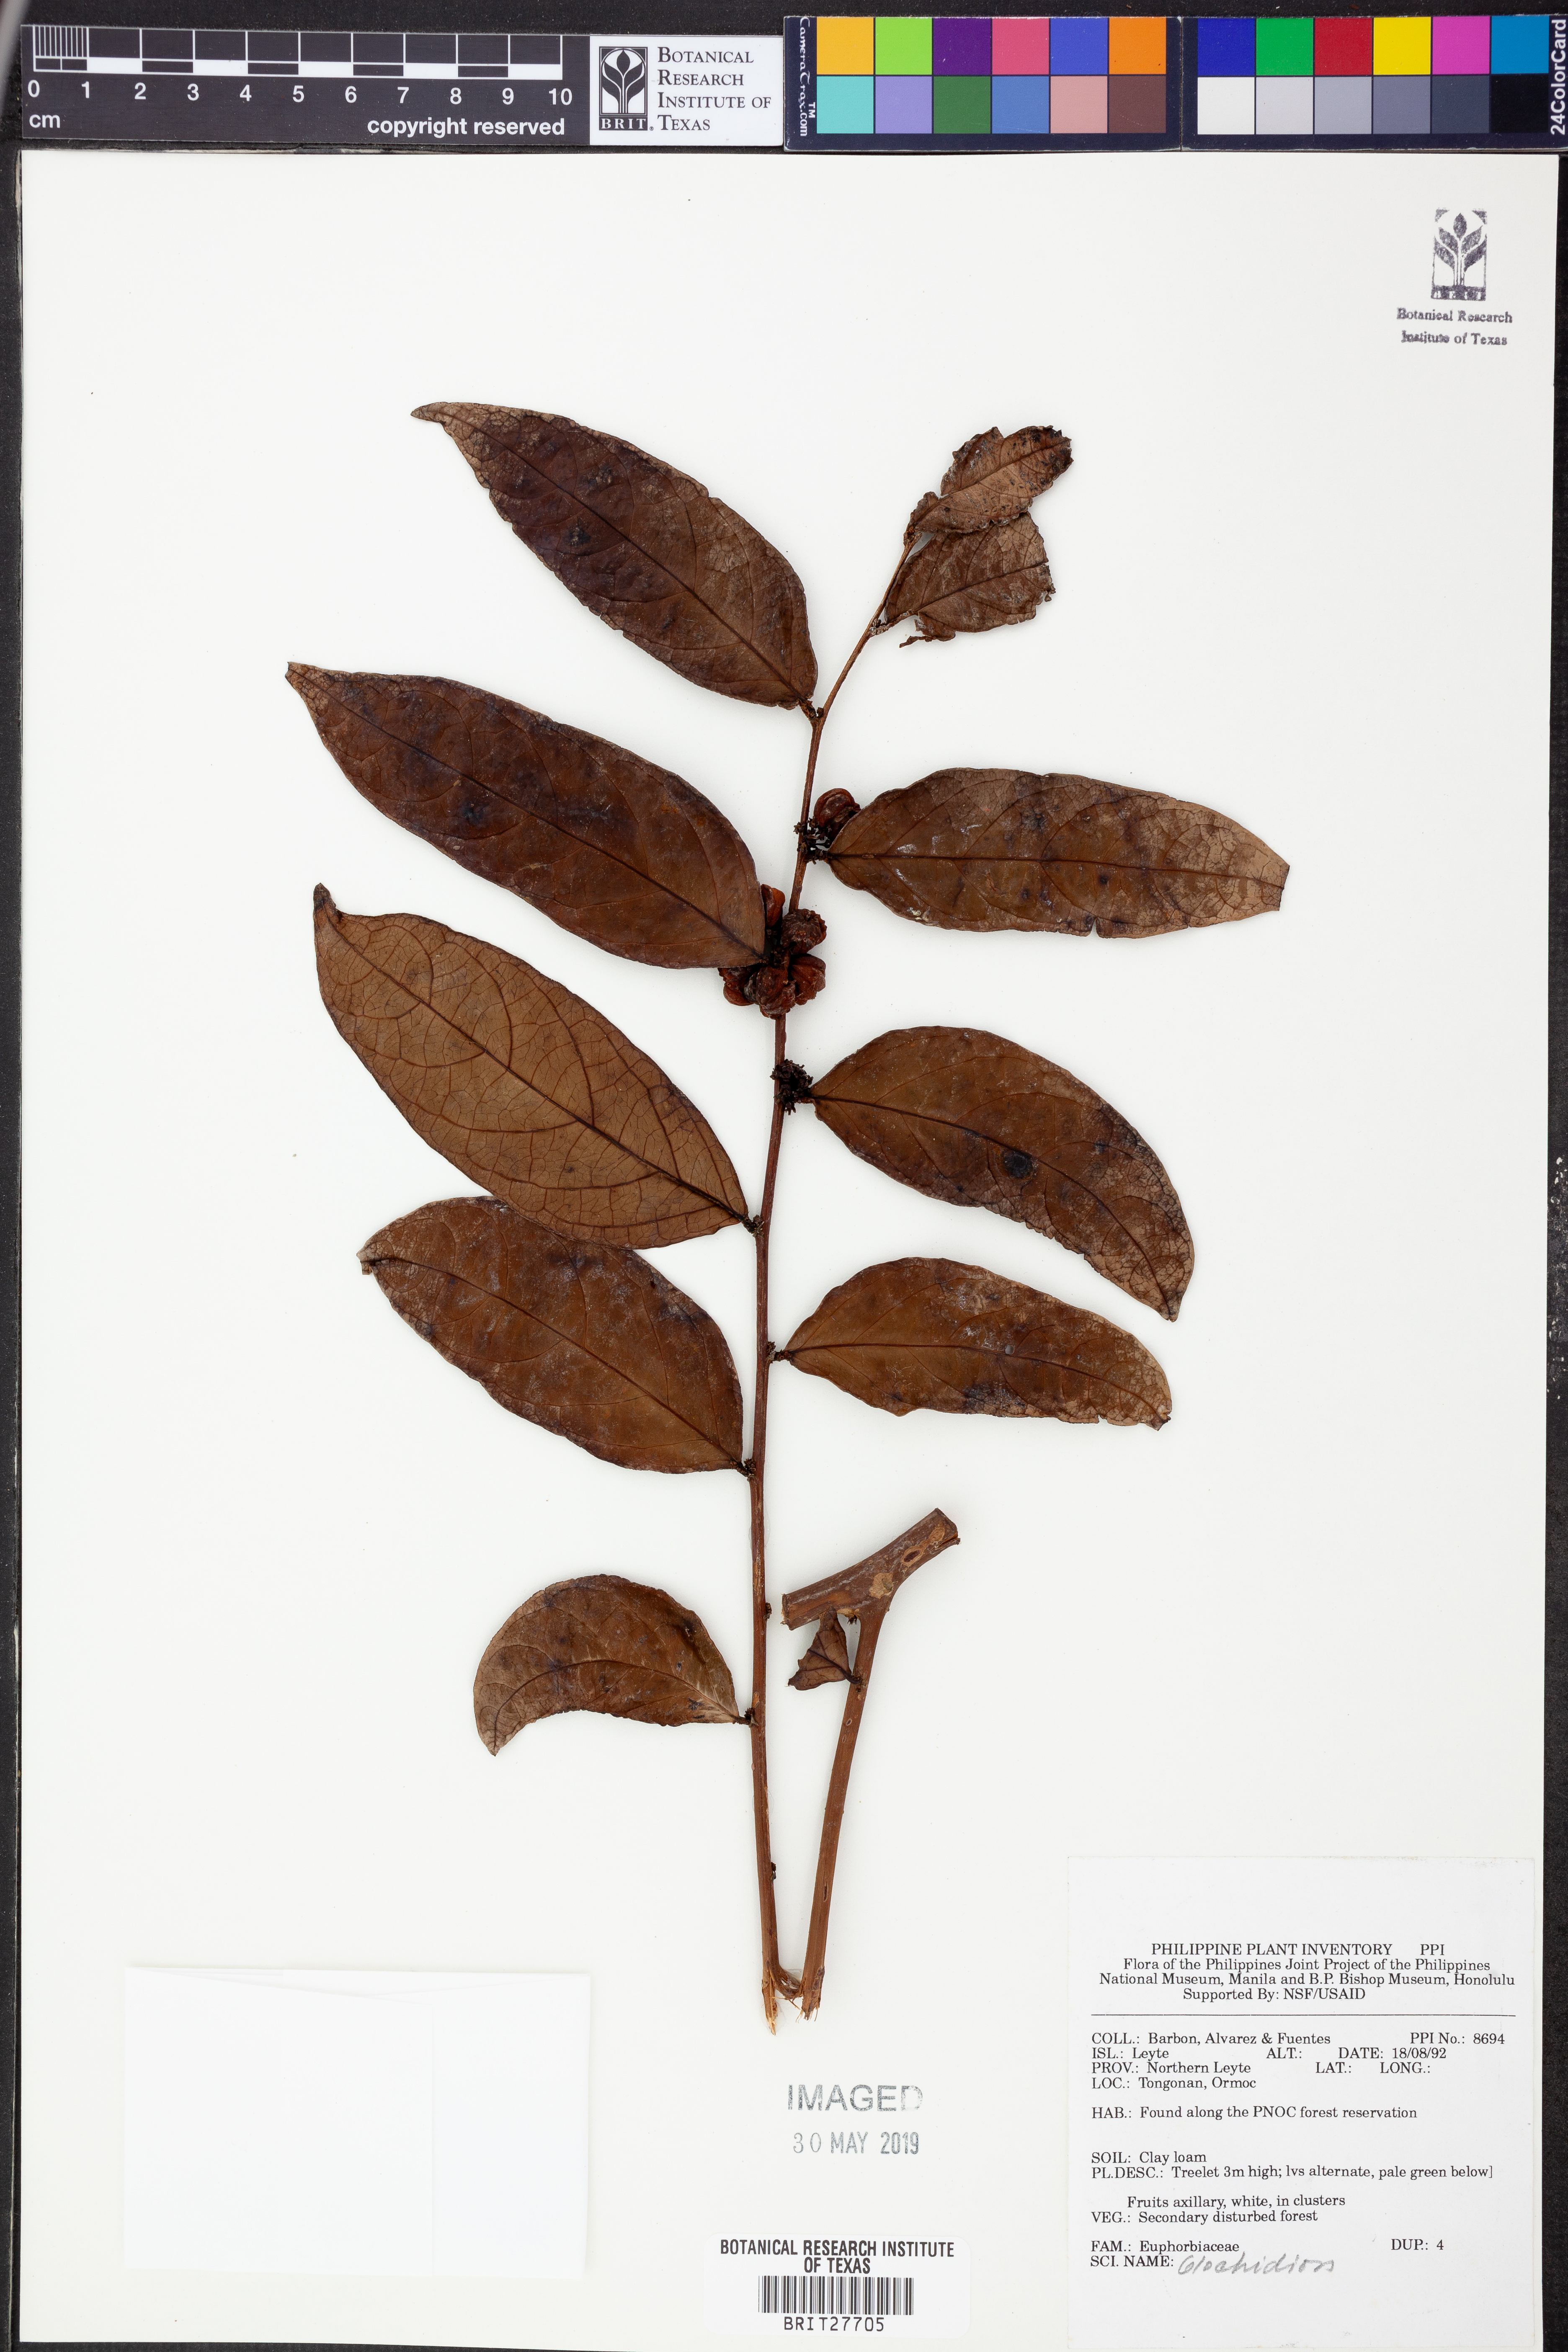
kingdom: Plantae
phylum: Tracheophyta
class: Magnoliopsida
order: Malpighiales
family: Phyllanthaceae
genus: Glochidion
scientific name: Glochidion
